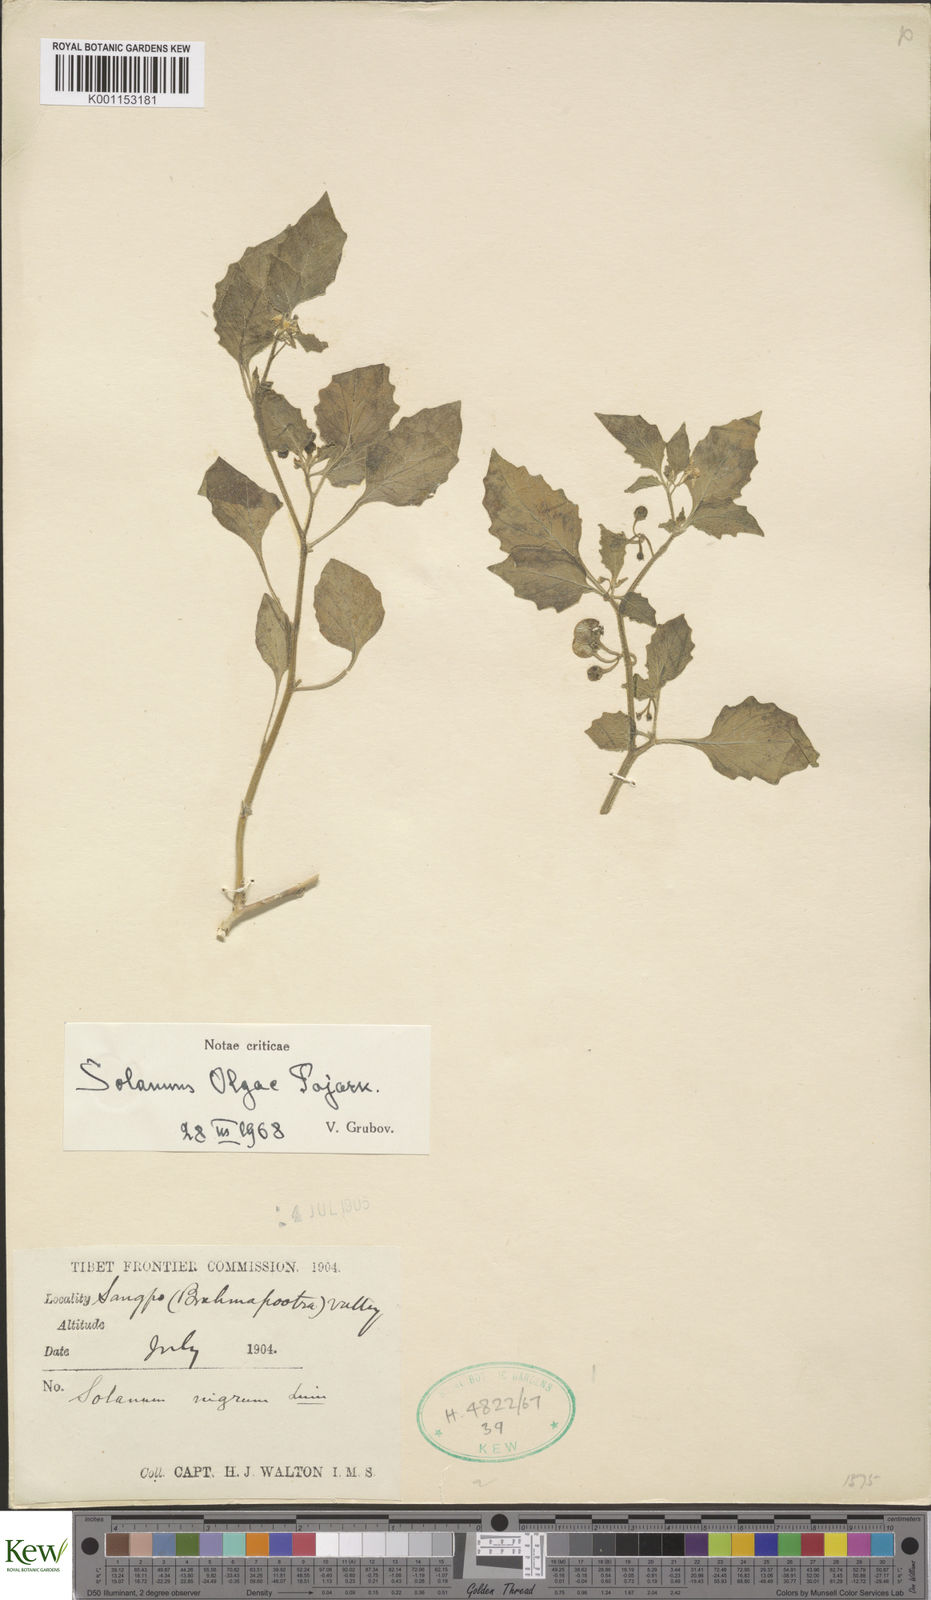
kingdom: Plantae
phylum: Tracheophyta
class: Magnoliopsida
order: Solanales
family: Solanaceae
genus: Solanum
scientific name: Solanum villosum
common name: Red nightshade
